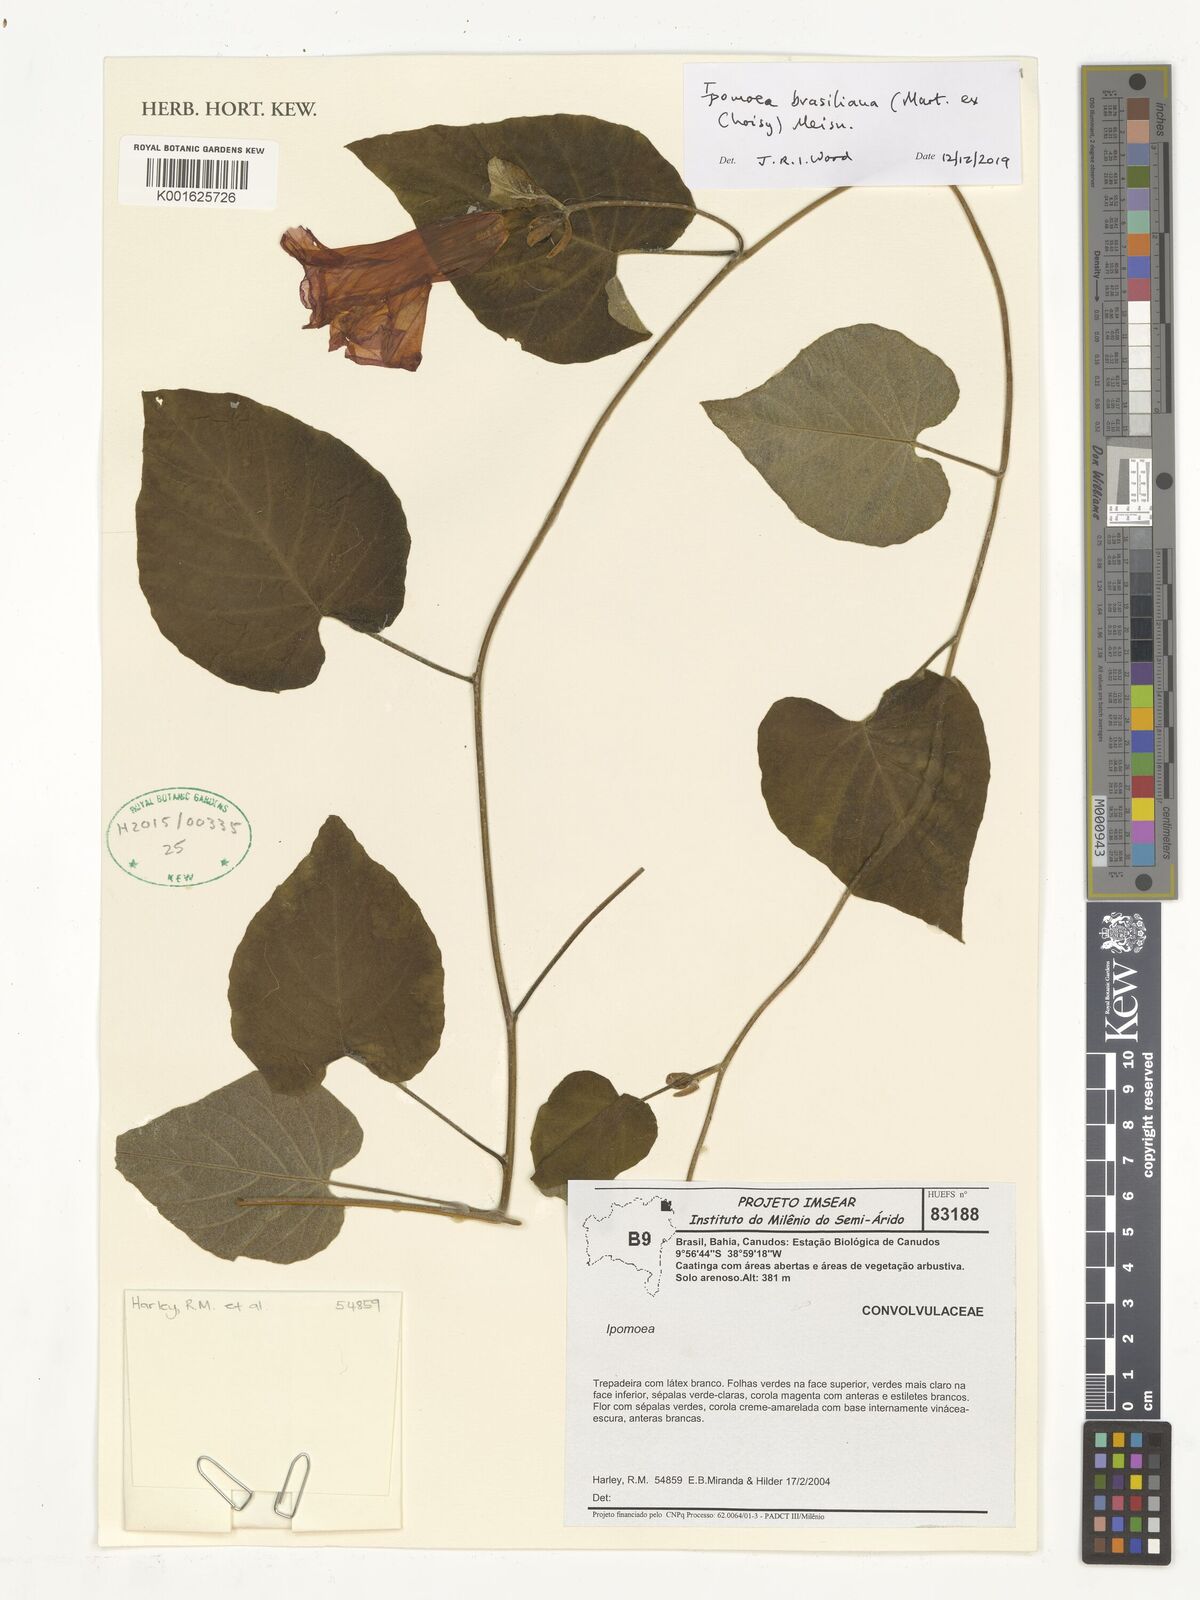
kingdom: Plantae
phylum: Tracheophyta
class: Magnoliopsida
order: Solanales
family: Convolvulaceae
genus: Ipomoea
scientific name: Ipomoea brasiliana
